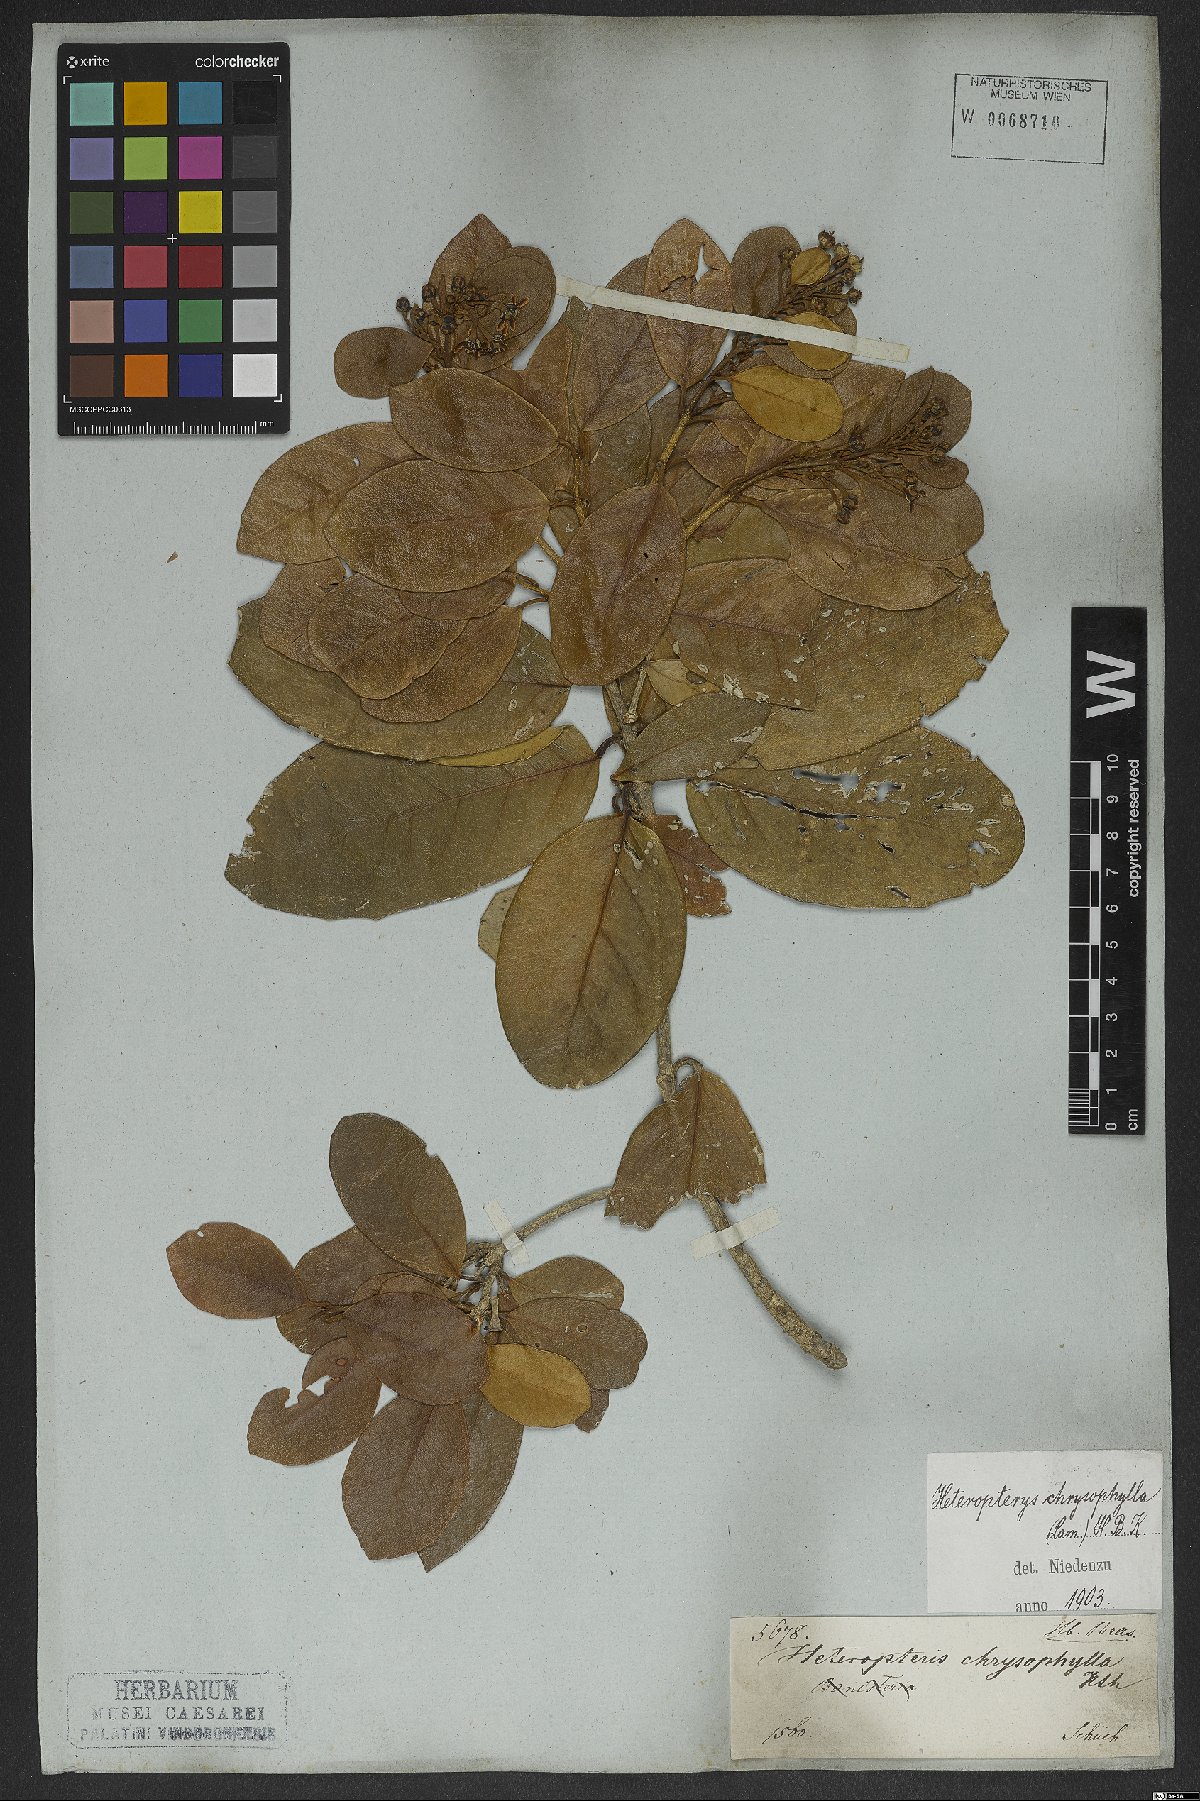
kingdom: Plantae
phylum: Tracheophyta
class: Magnoliopsida
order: Malpighiales
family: Malpighiaceae
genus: Heteropterys
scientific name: Heteropterys chrysophylla
